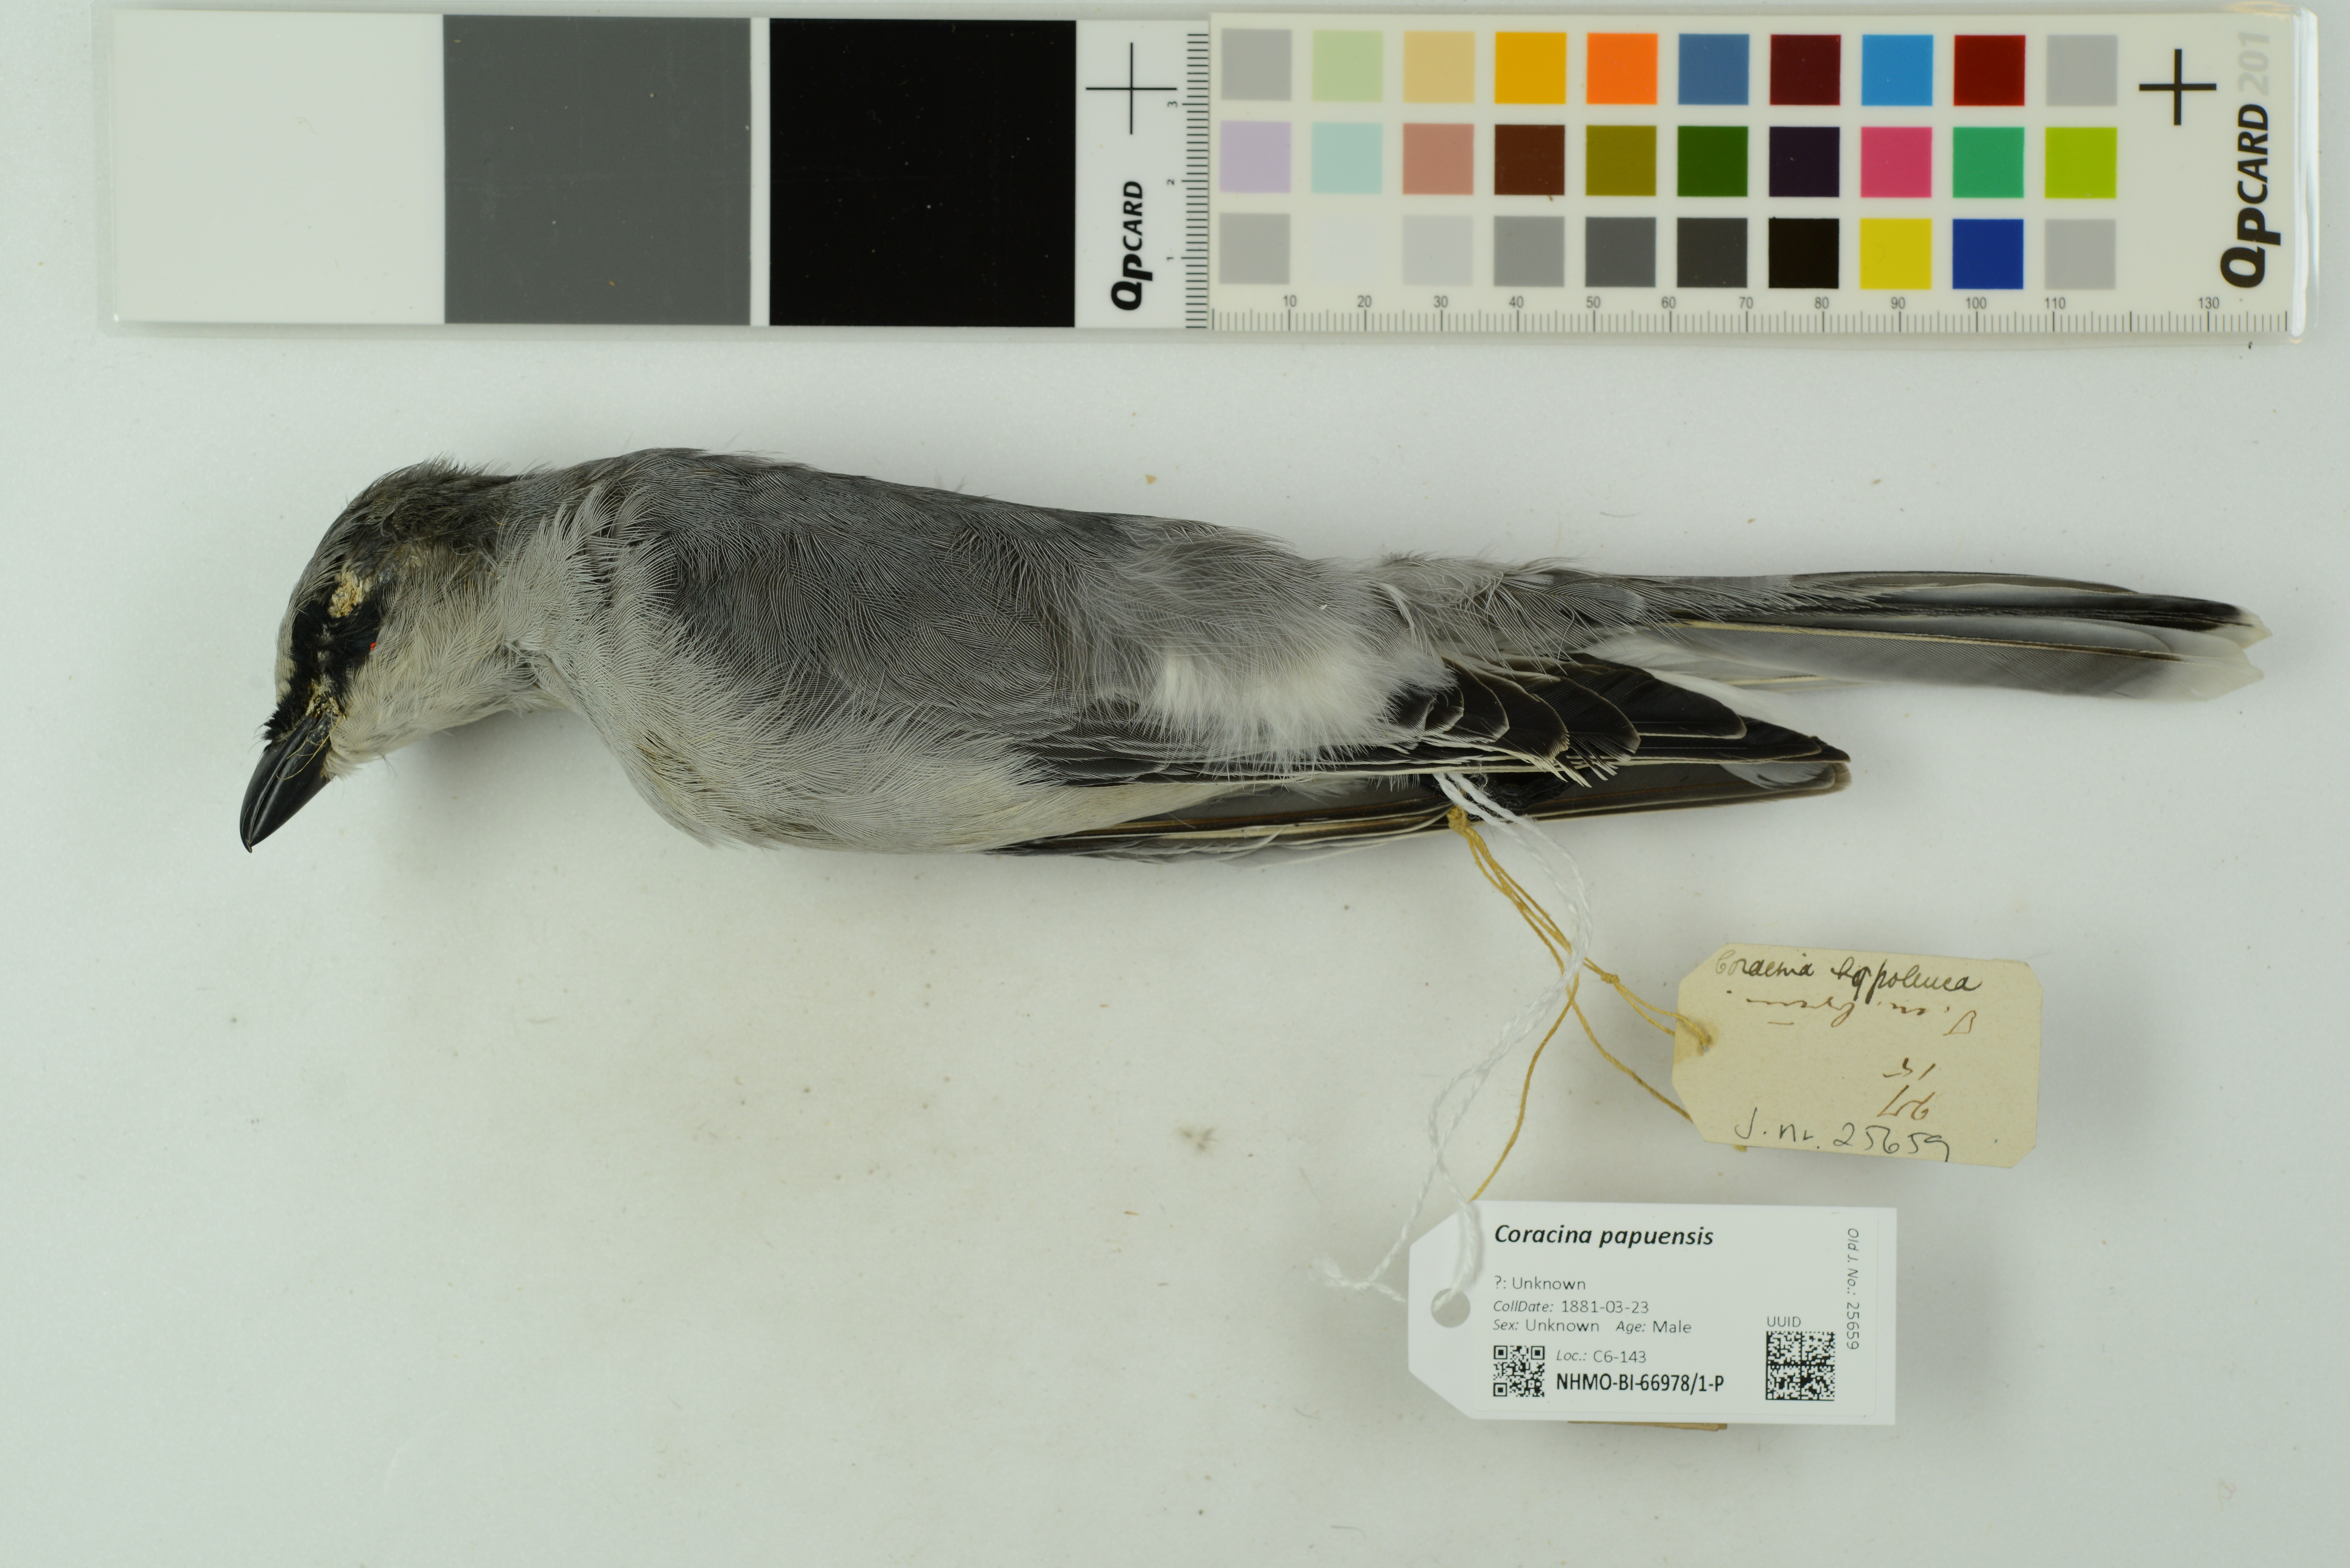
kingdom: Animalia
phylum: Chordata
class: Aves
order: Passeriformes
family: Campephagidae
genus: Coracina
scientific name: Coracina papuensis
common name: White-bellied cuckooshrike
